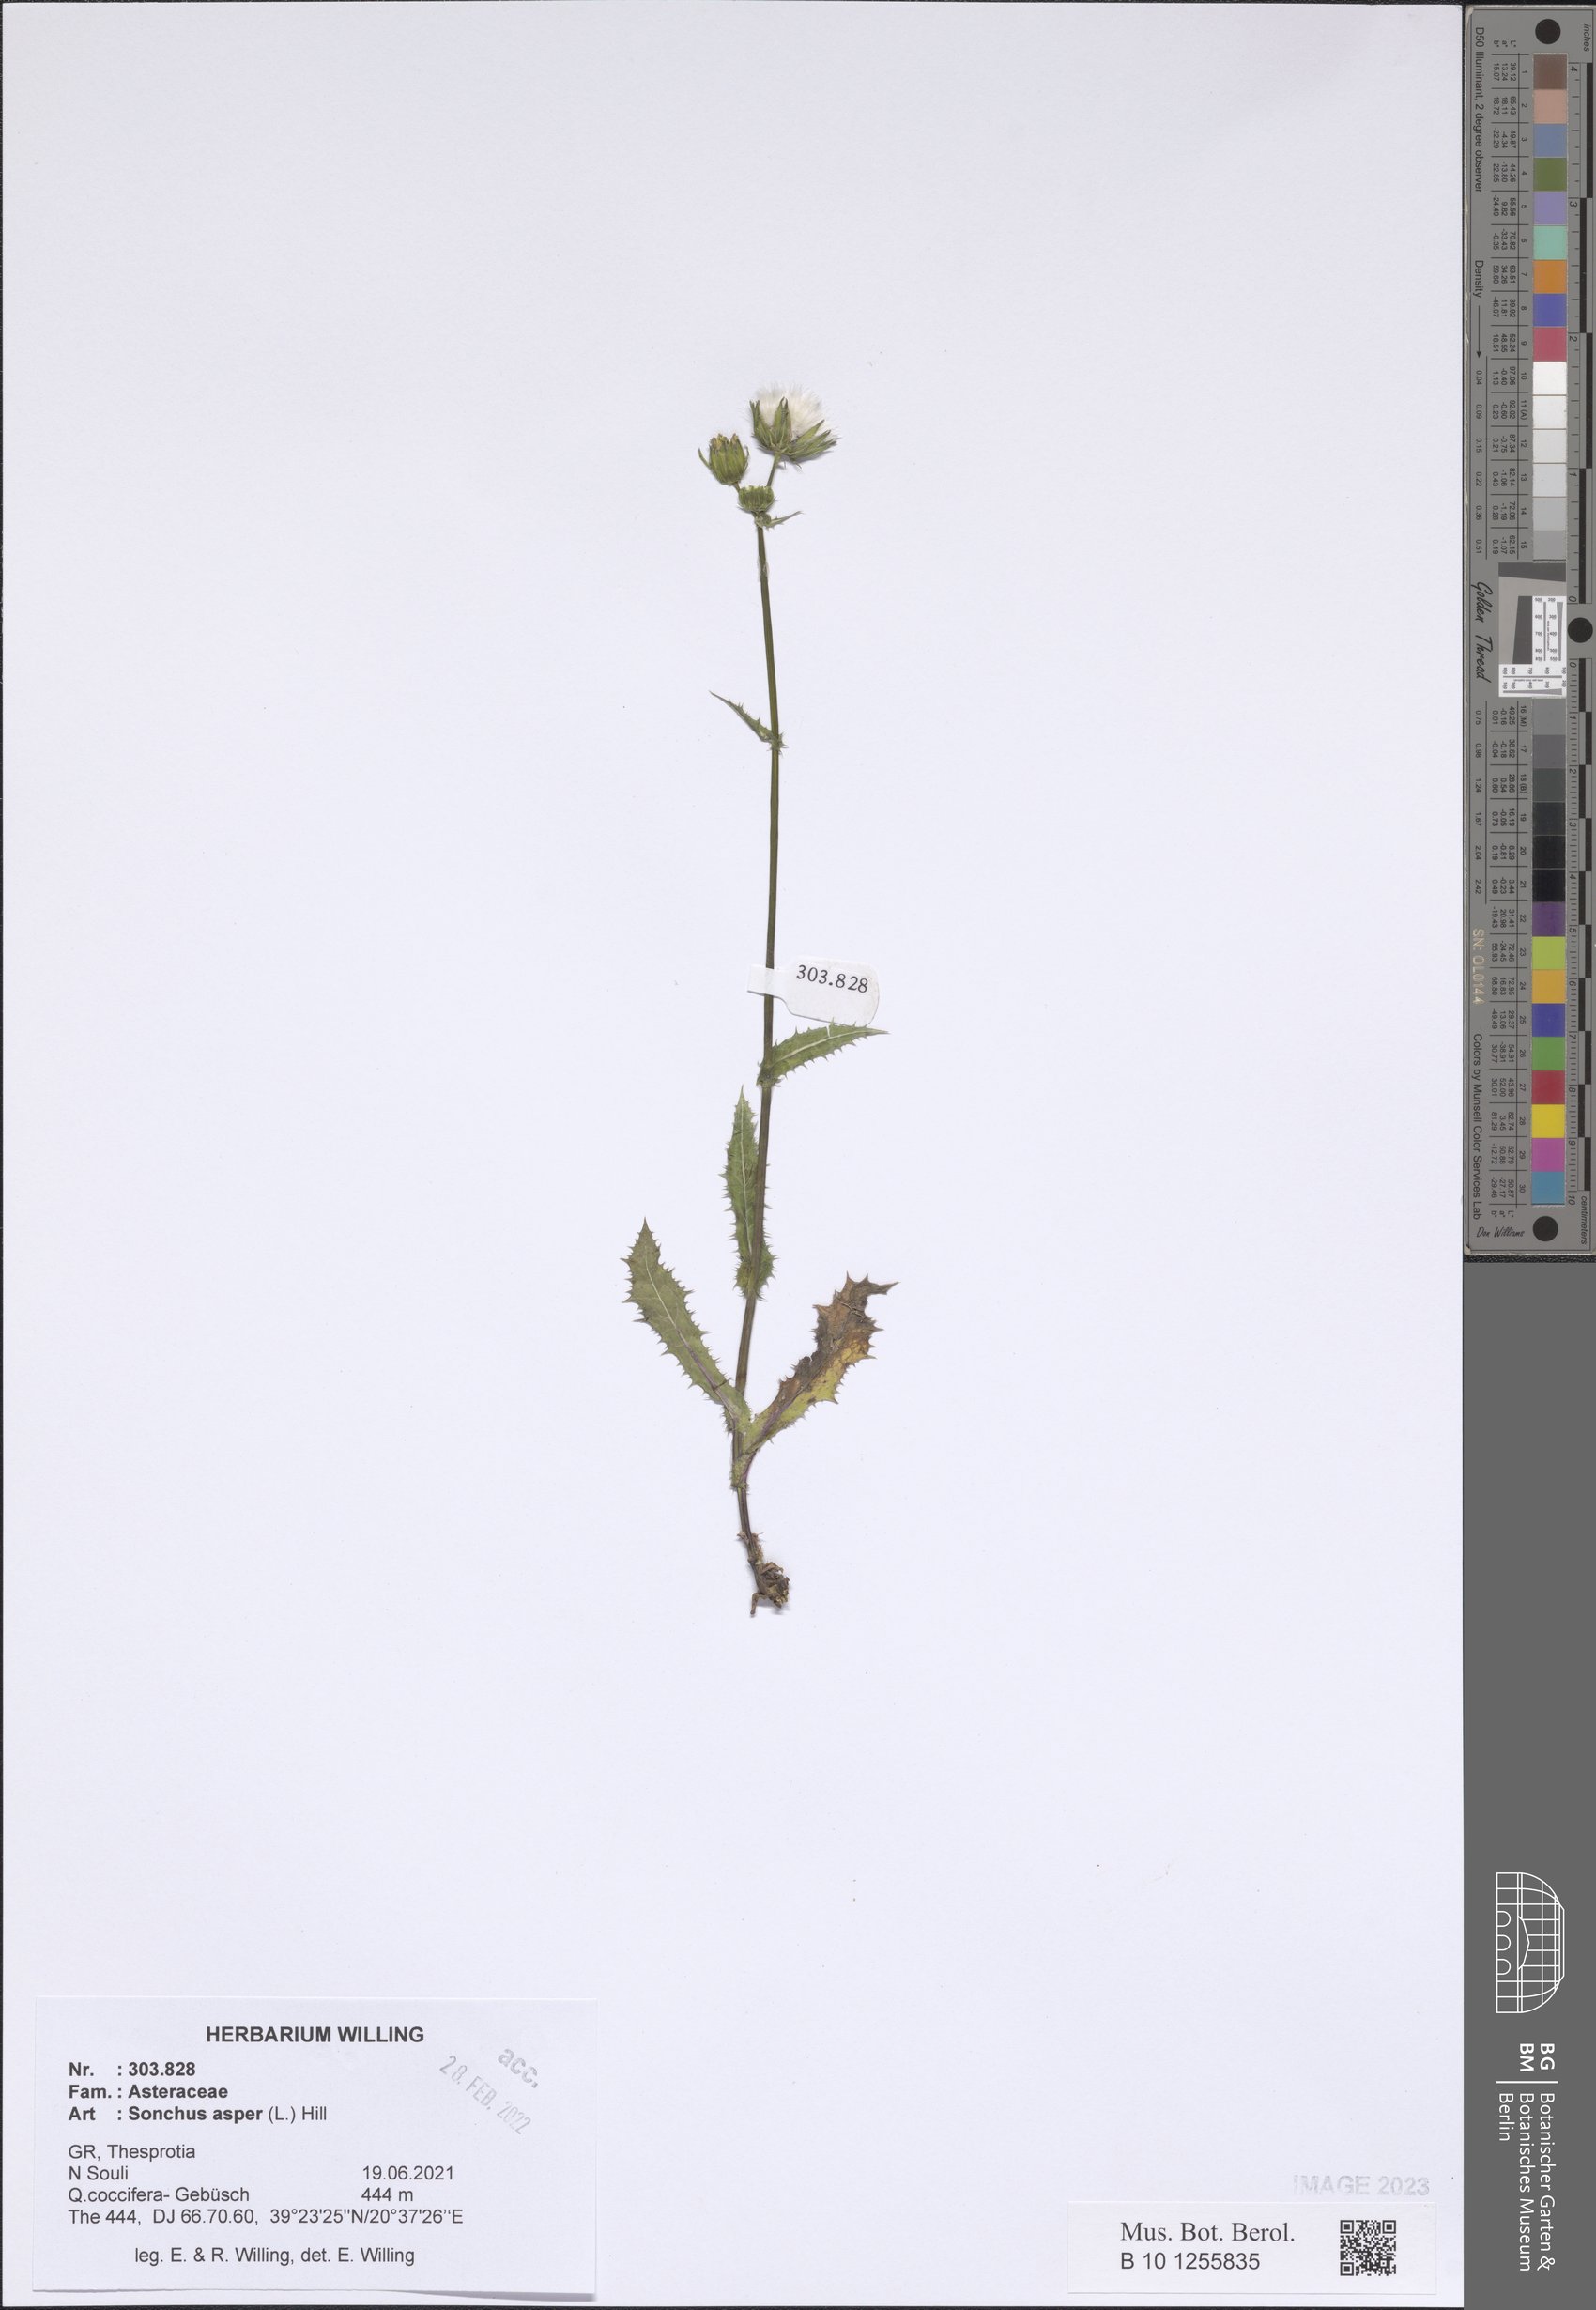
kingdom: Plantae
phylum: Tracheophyta
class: Magnoliopsida
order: Asterales
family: Asteraceae
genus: Sonchus
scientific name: Sonchus asper
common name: Prickly sow-thistle
